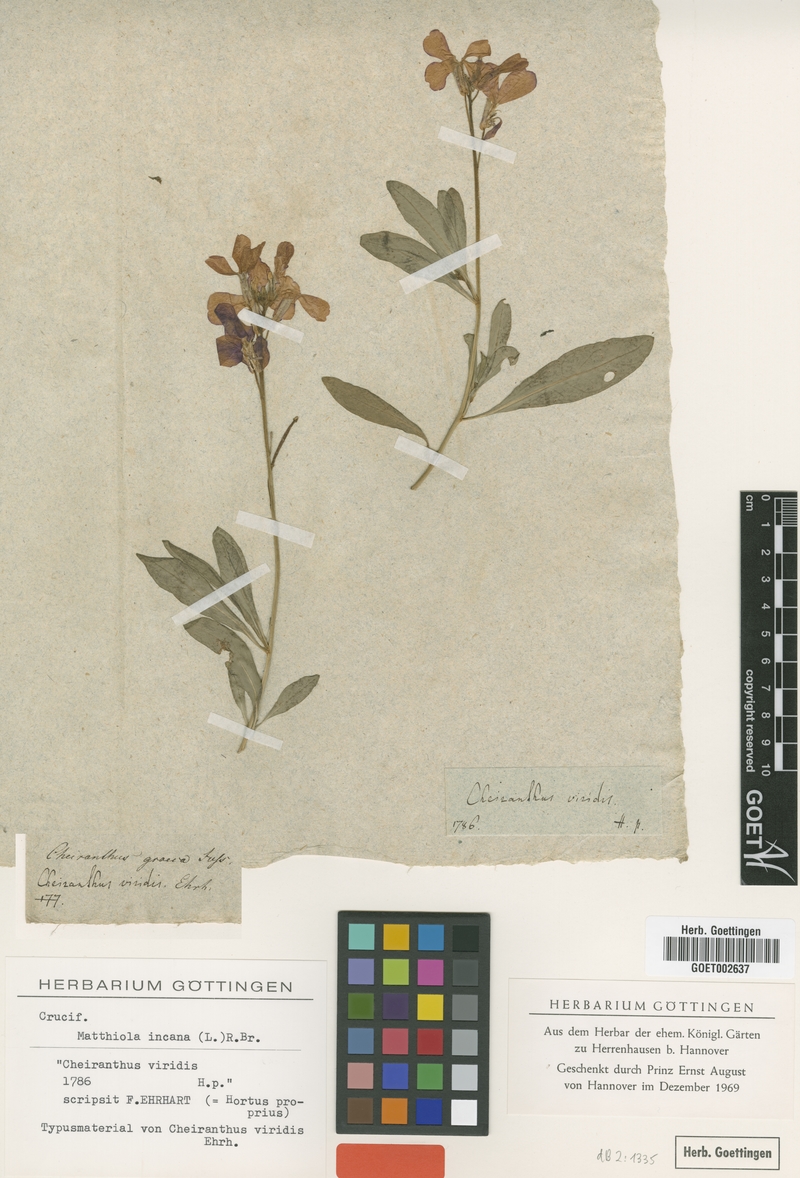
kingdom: Plantae
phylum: Tracheophyta
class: Magnoliopsida
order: Brassicales
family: Brassicaceae
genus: Matthiola
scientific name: Matthiola incana
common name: Hoary stock
